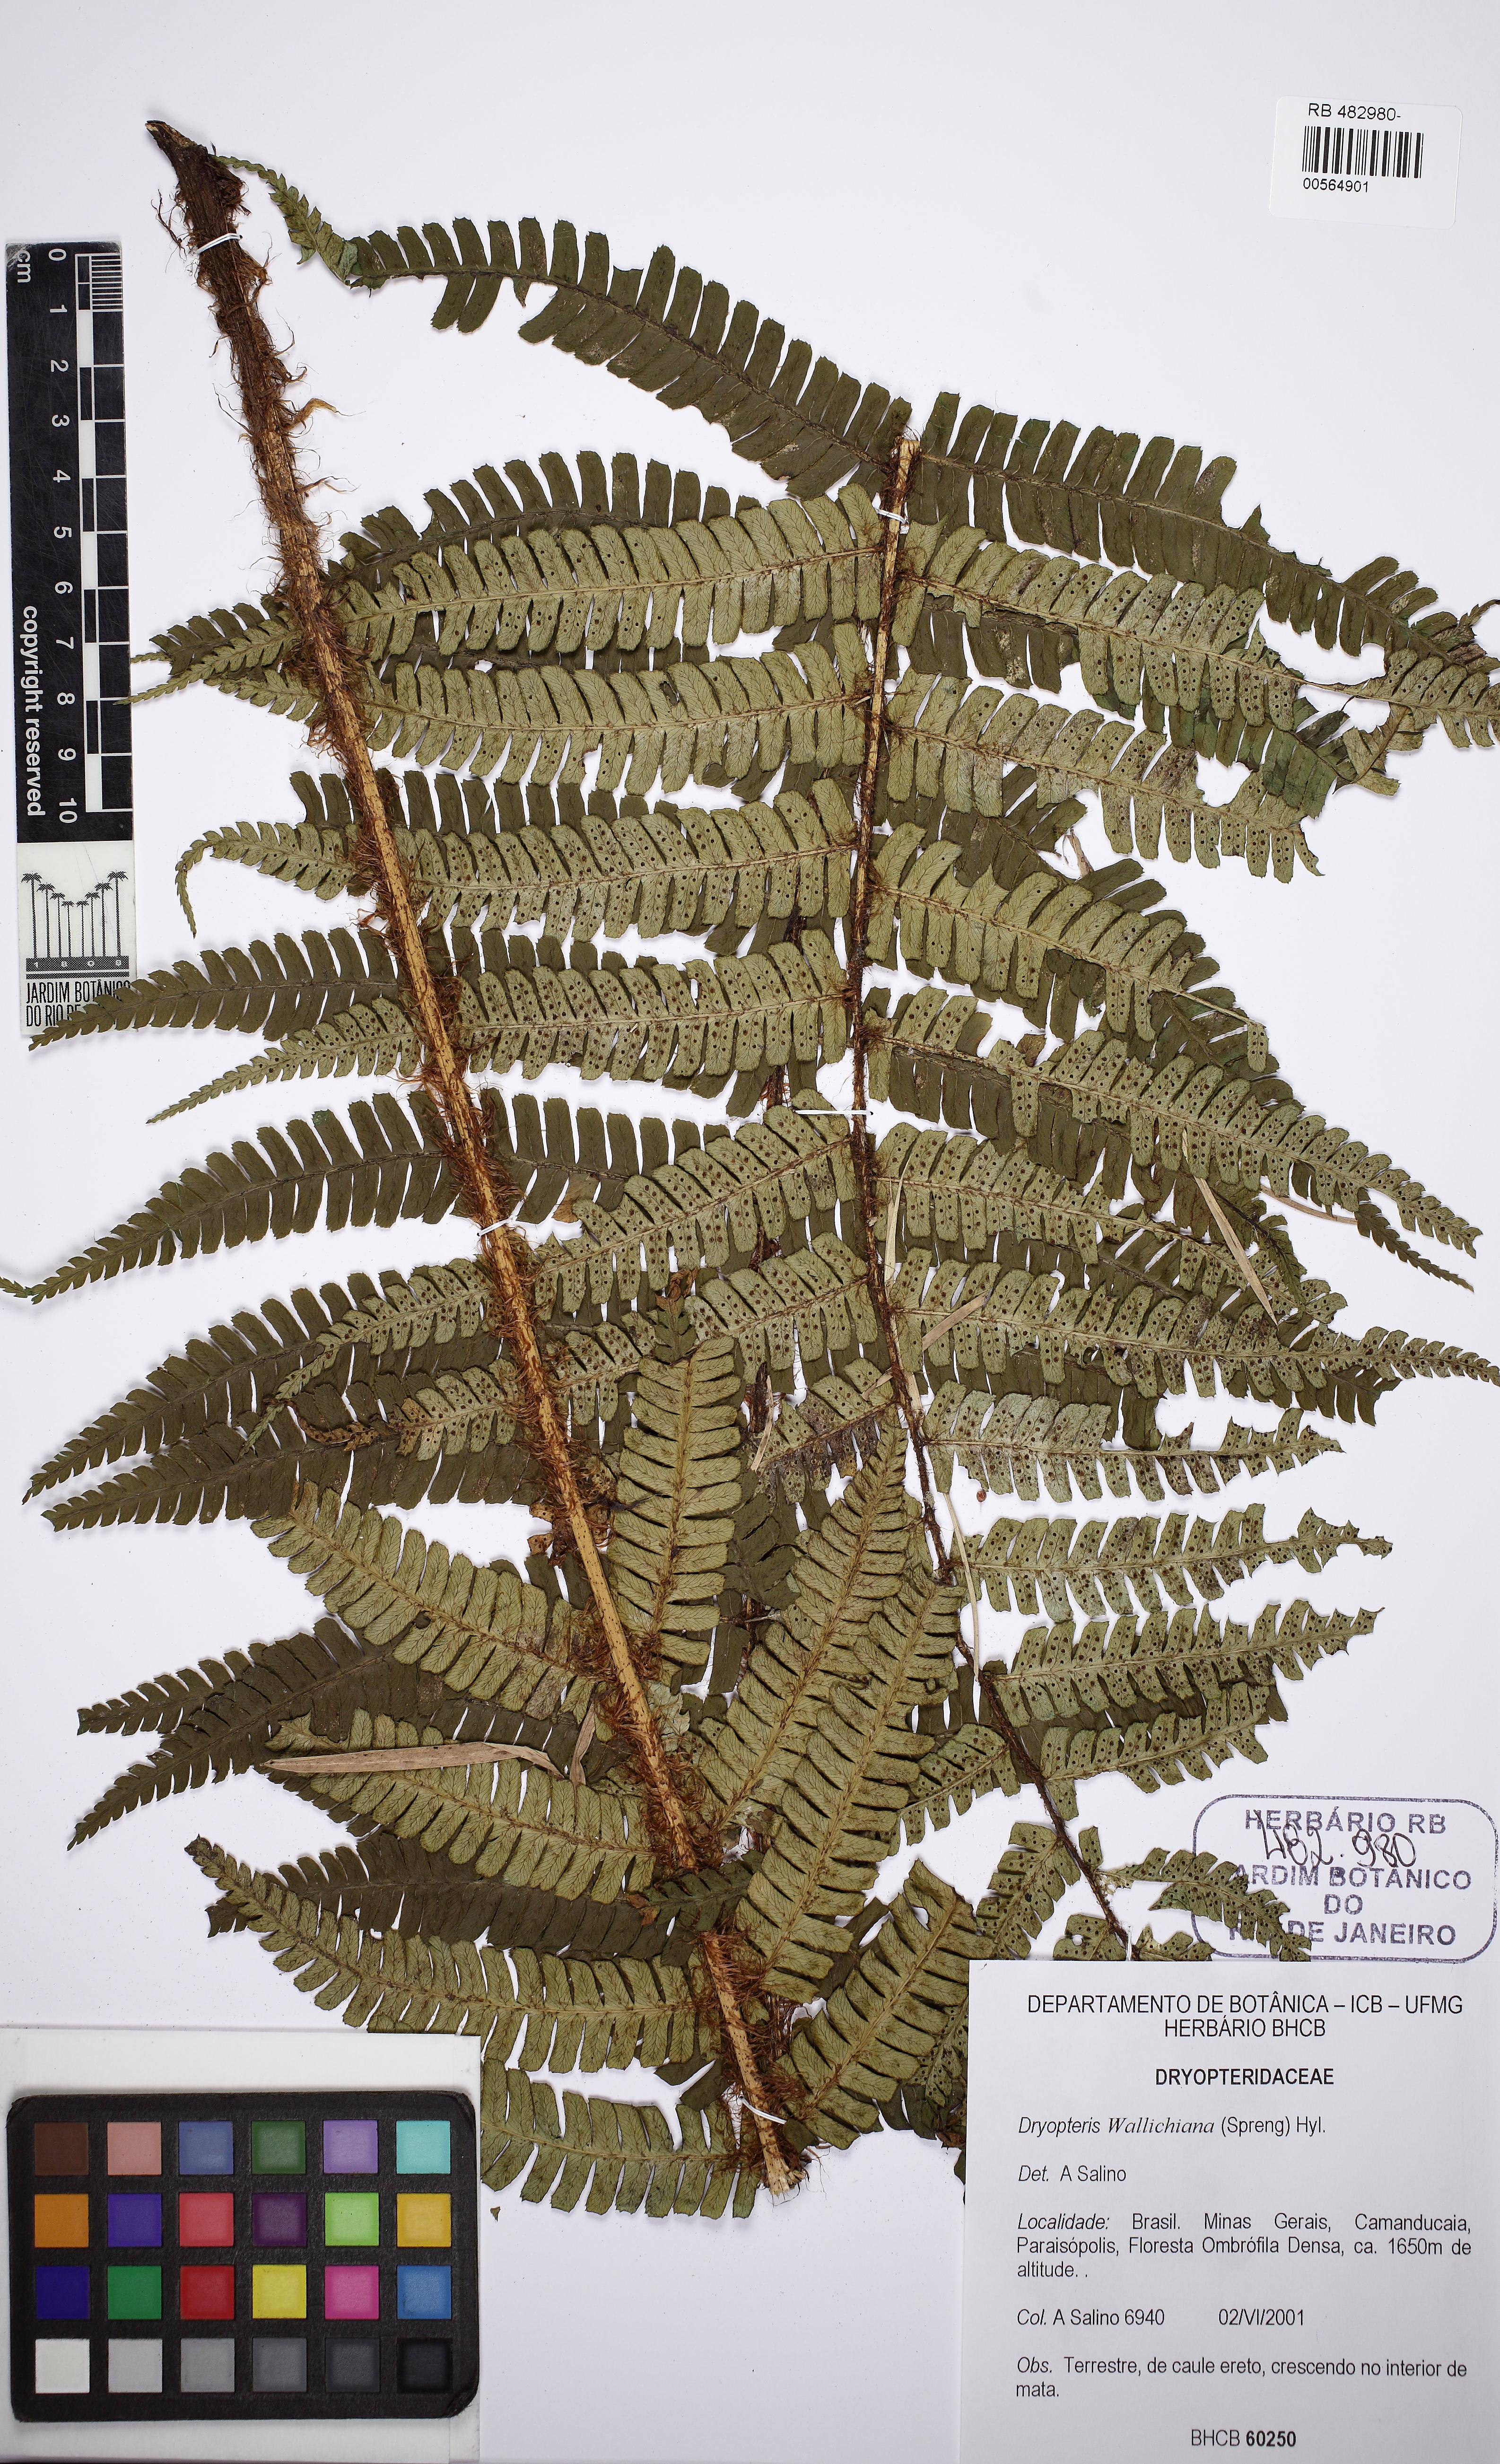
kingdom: Plantae
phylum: Tracheophyta
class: Polypodiopsida
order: Polypodiales
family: Dryopteridaceae
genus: Dryopteris
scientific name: Dryopteris wallichiana
